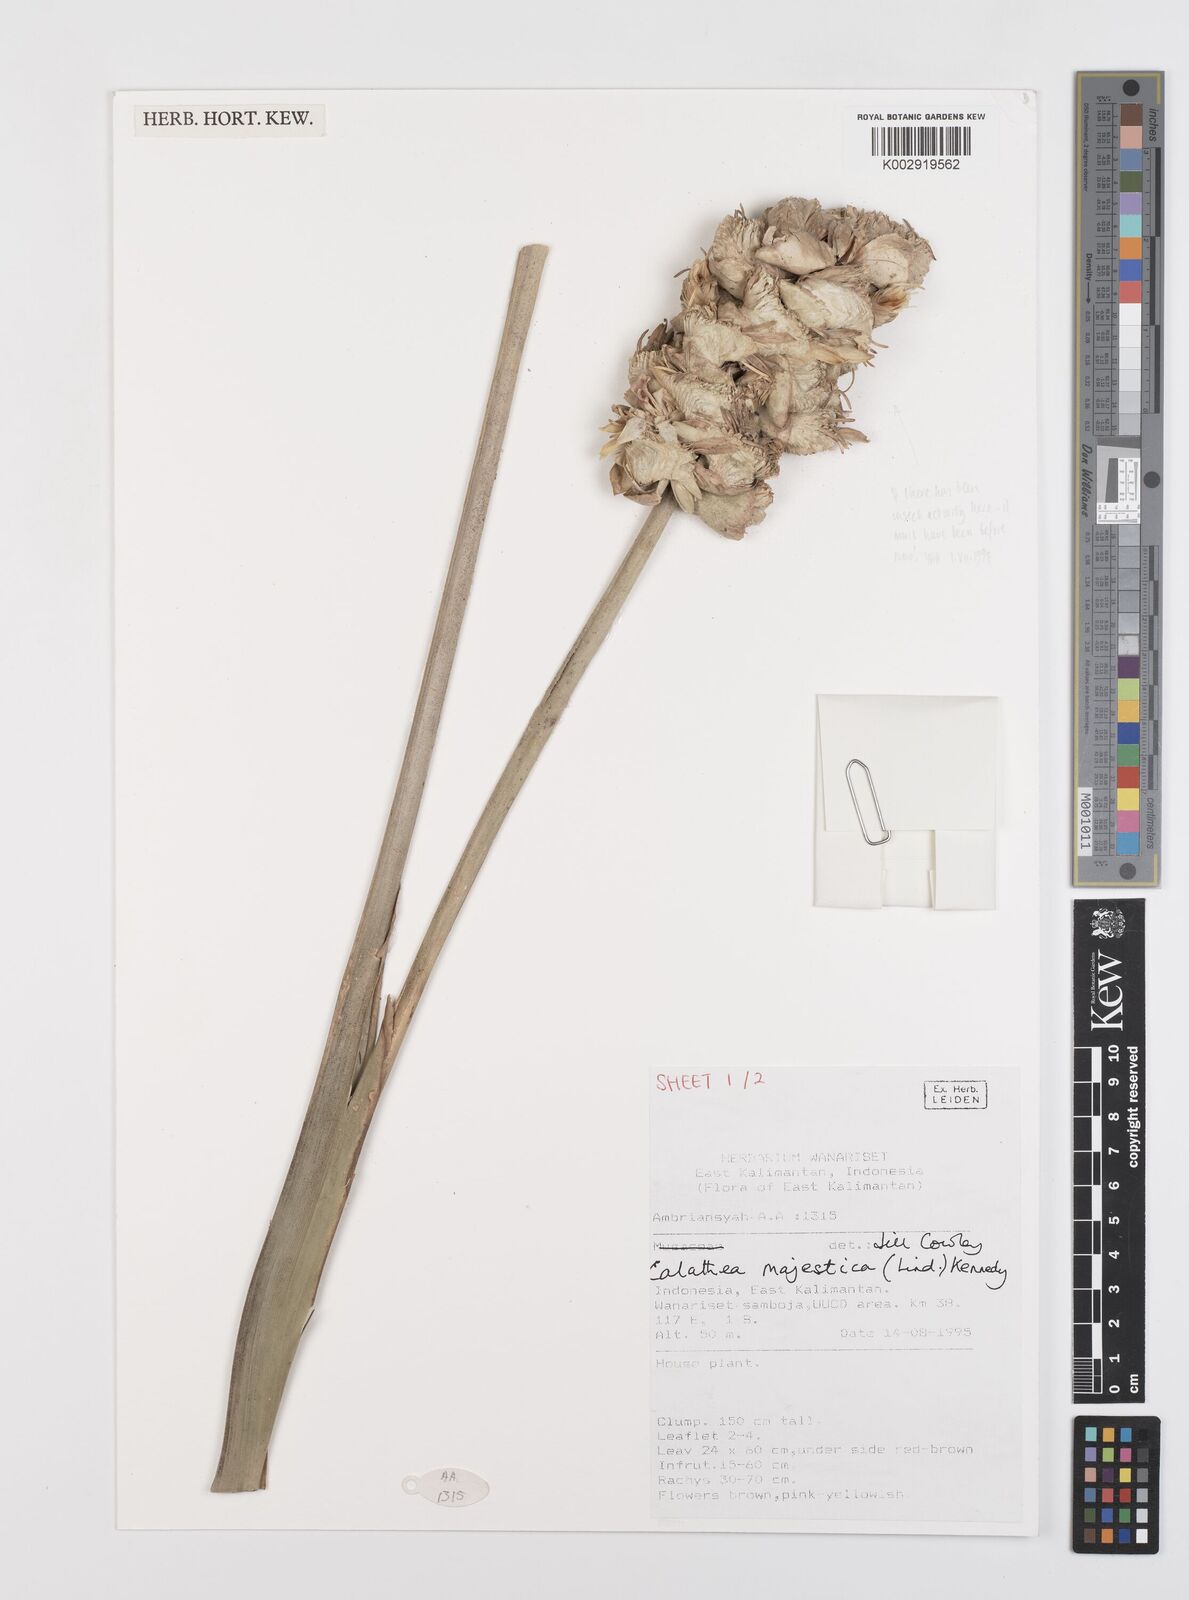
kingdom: Plantae
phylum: Tracheophyta
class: Liliopsida
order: Zingiberales
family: Marantaceae
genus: Goeppertia
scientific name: Goeppertia majestica
